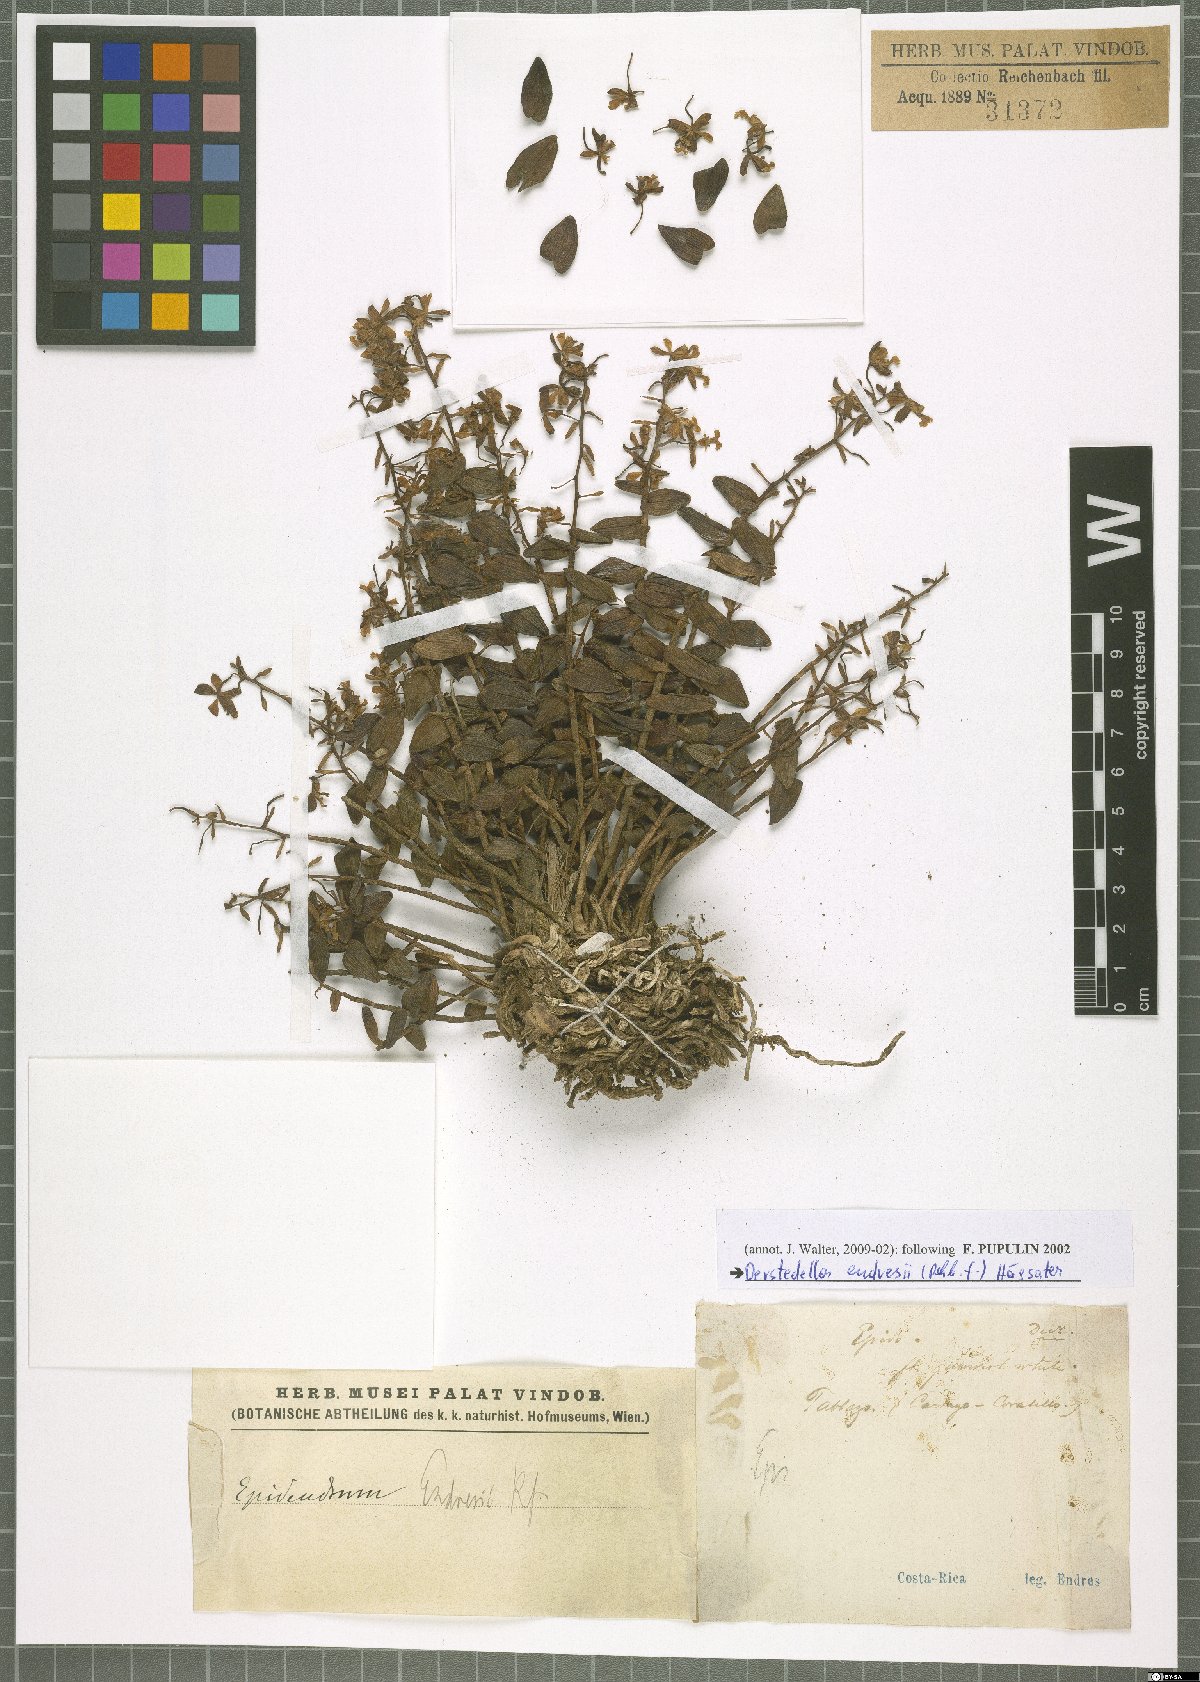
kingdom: Plantae
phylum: Tracheophyta
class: Liliopsida
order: Asparagales
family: Orchidaceae
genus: Epidendrum
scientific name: Epidendrum endresii
